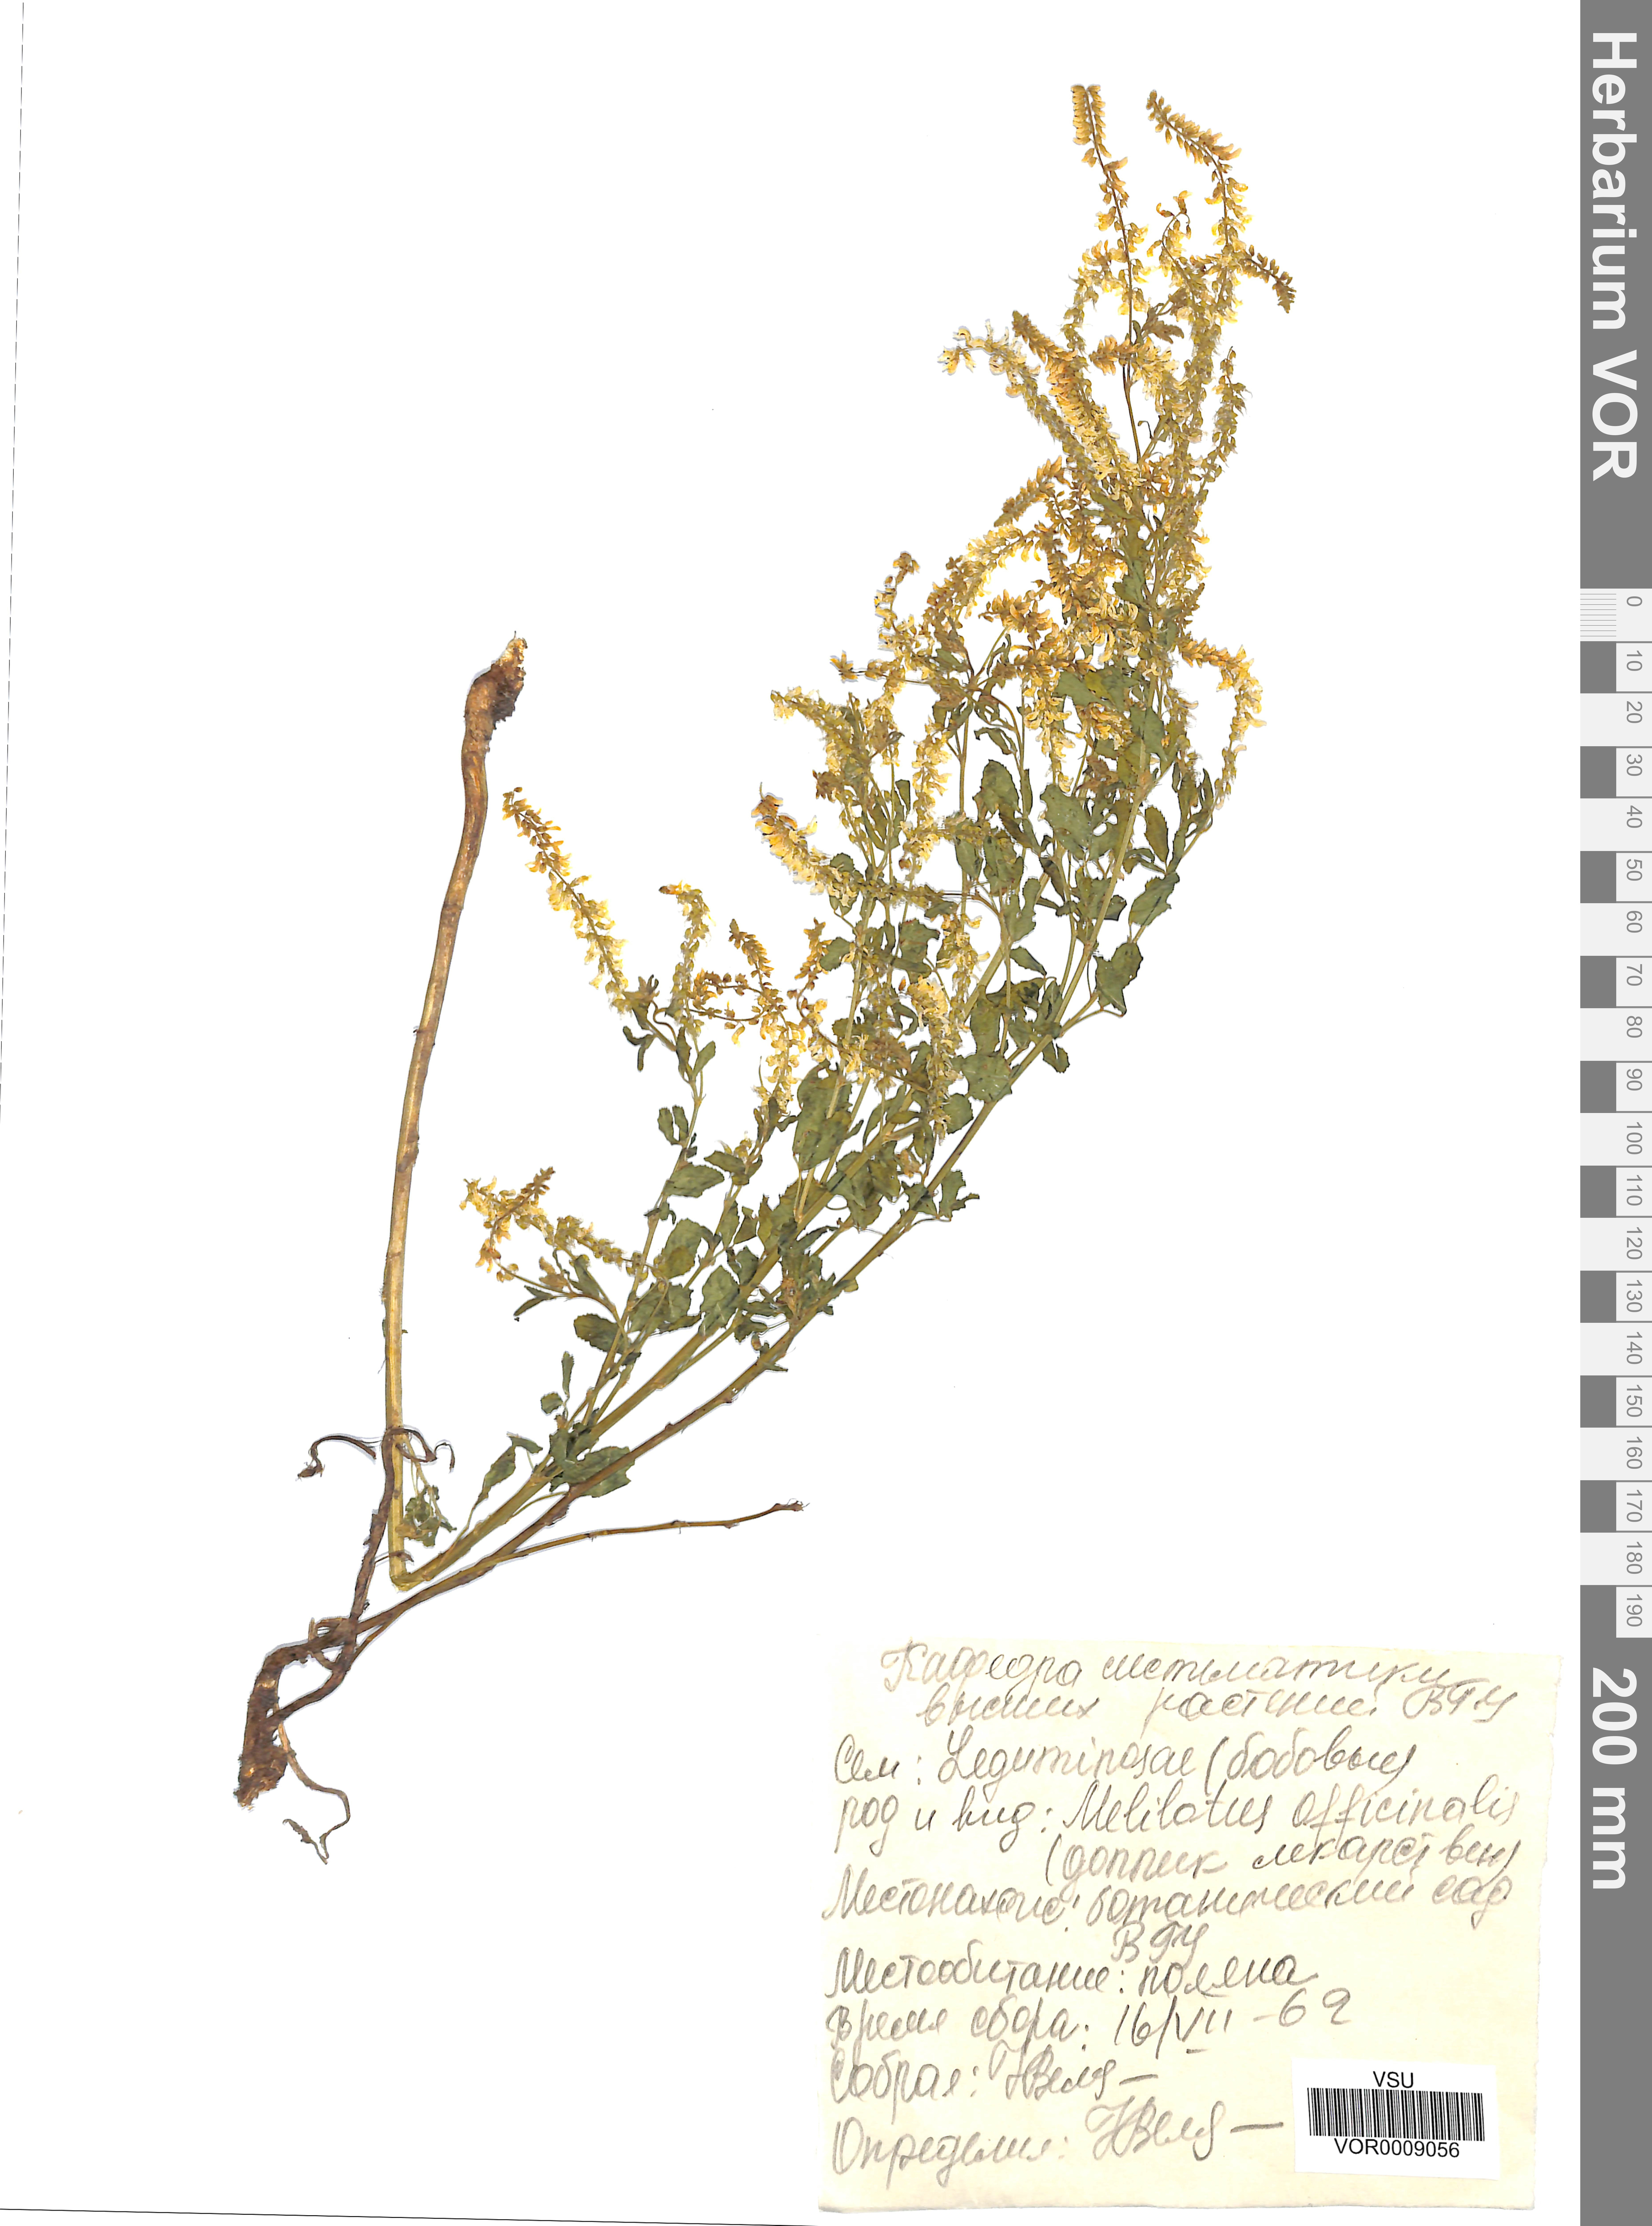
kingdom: Plantae
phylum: Tracheophyta
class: Magnoliopsida
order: Fabales
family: Fabaceae
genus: Melilotus
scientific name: Melilotus officinalis
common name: Sweetclover
